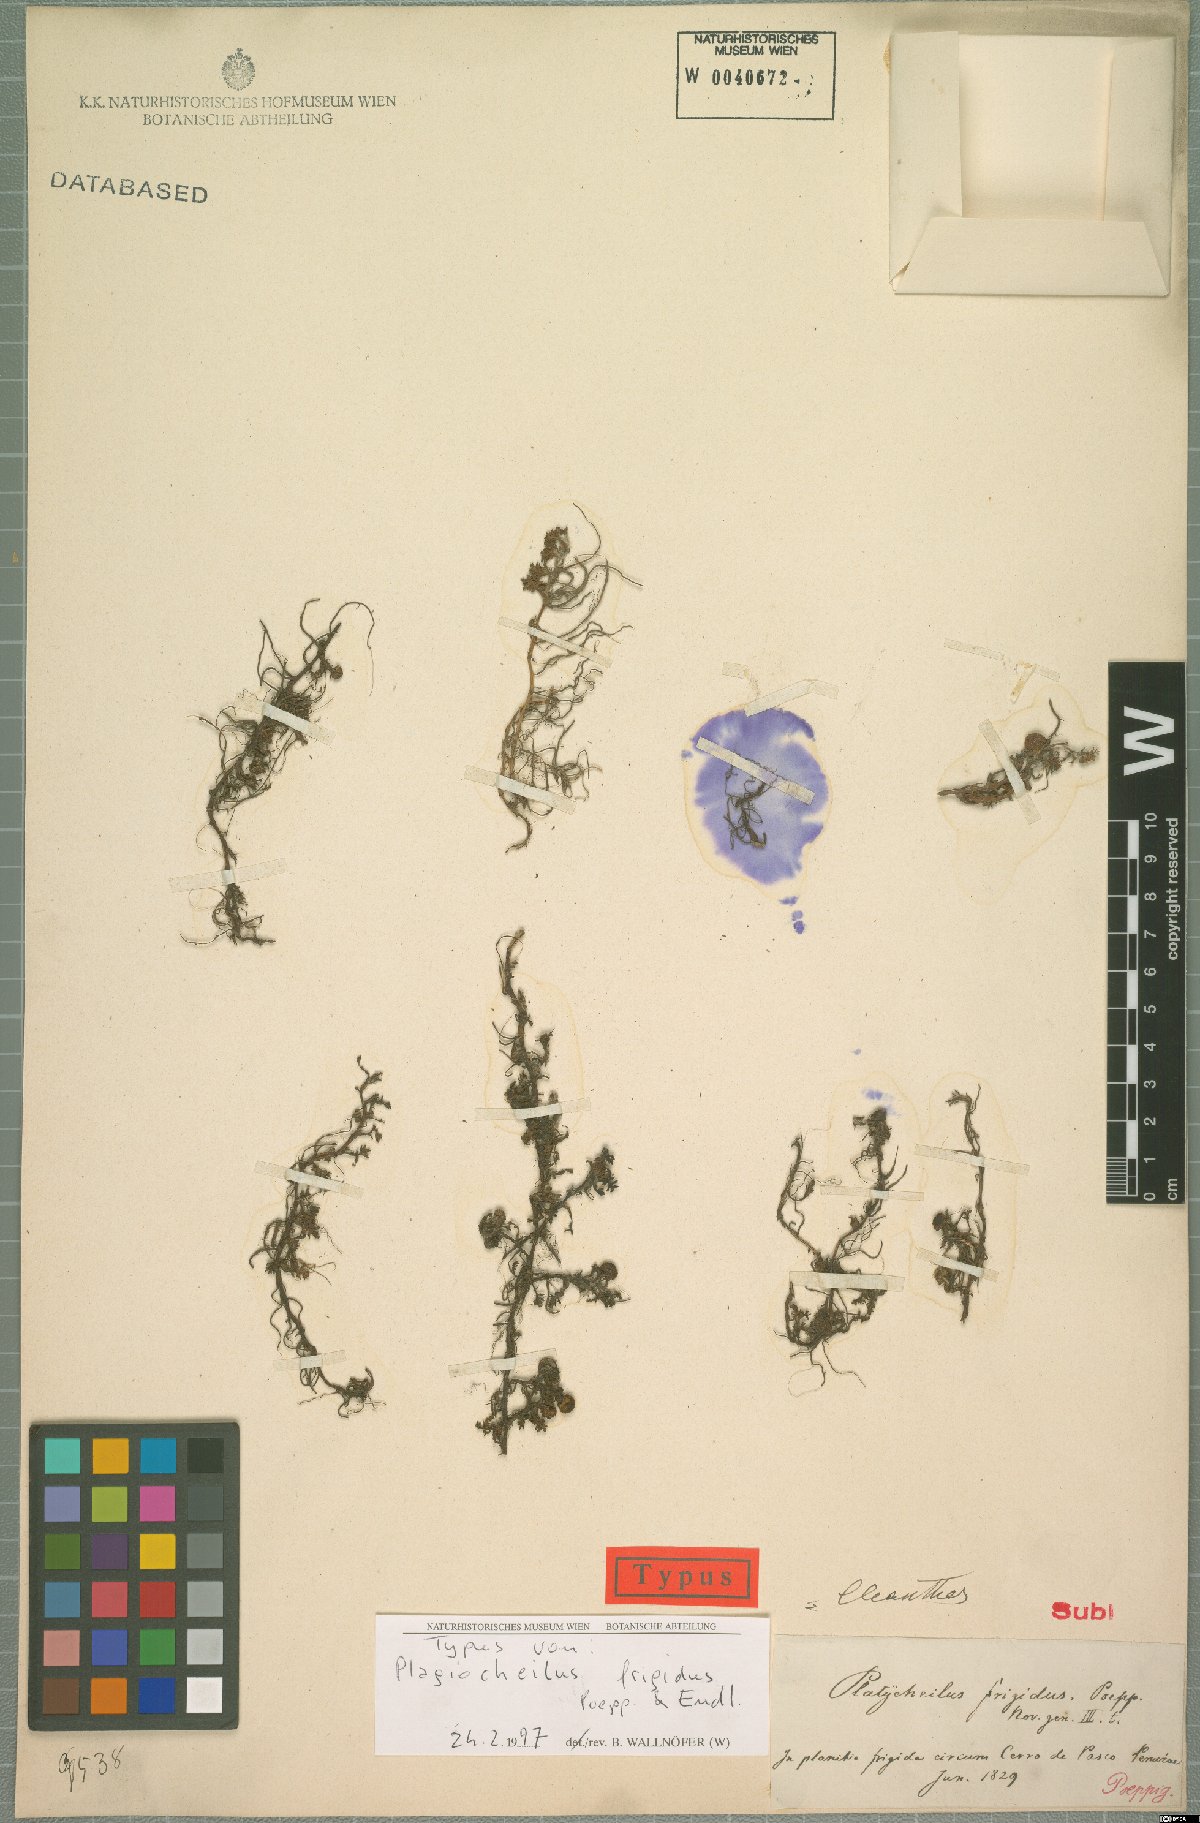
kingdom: Plantae
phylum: Tracheophyta
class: Magnoliopsida
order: Asterales
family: Asteraceae
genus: Plagiocheilus
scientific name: Plagiocheilus frigidus
